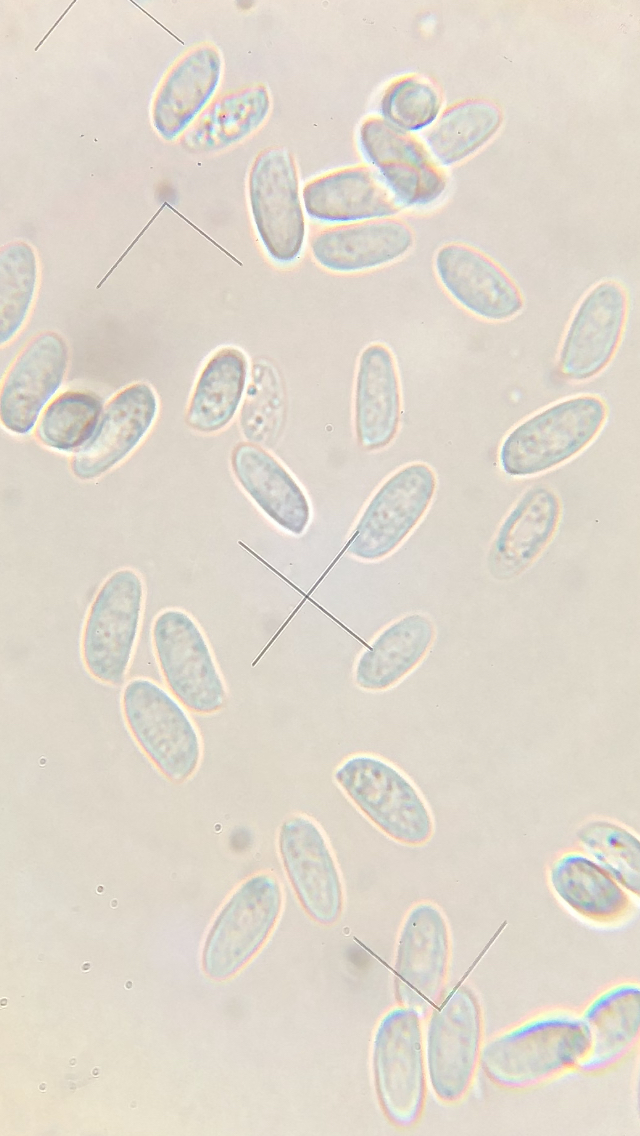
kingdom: Fungi
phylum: Basidiomycota
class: Agaricomycetes
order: Agaricales
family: Physalacriaceae
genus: Flammulina
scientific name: Flammulina
